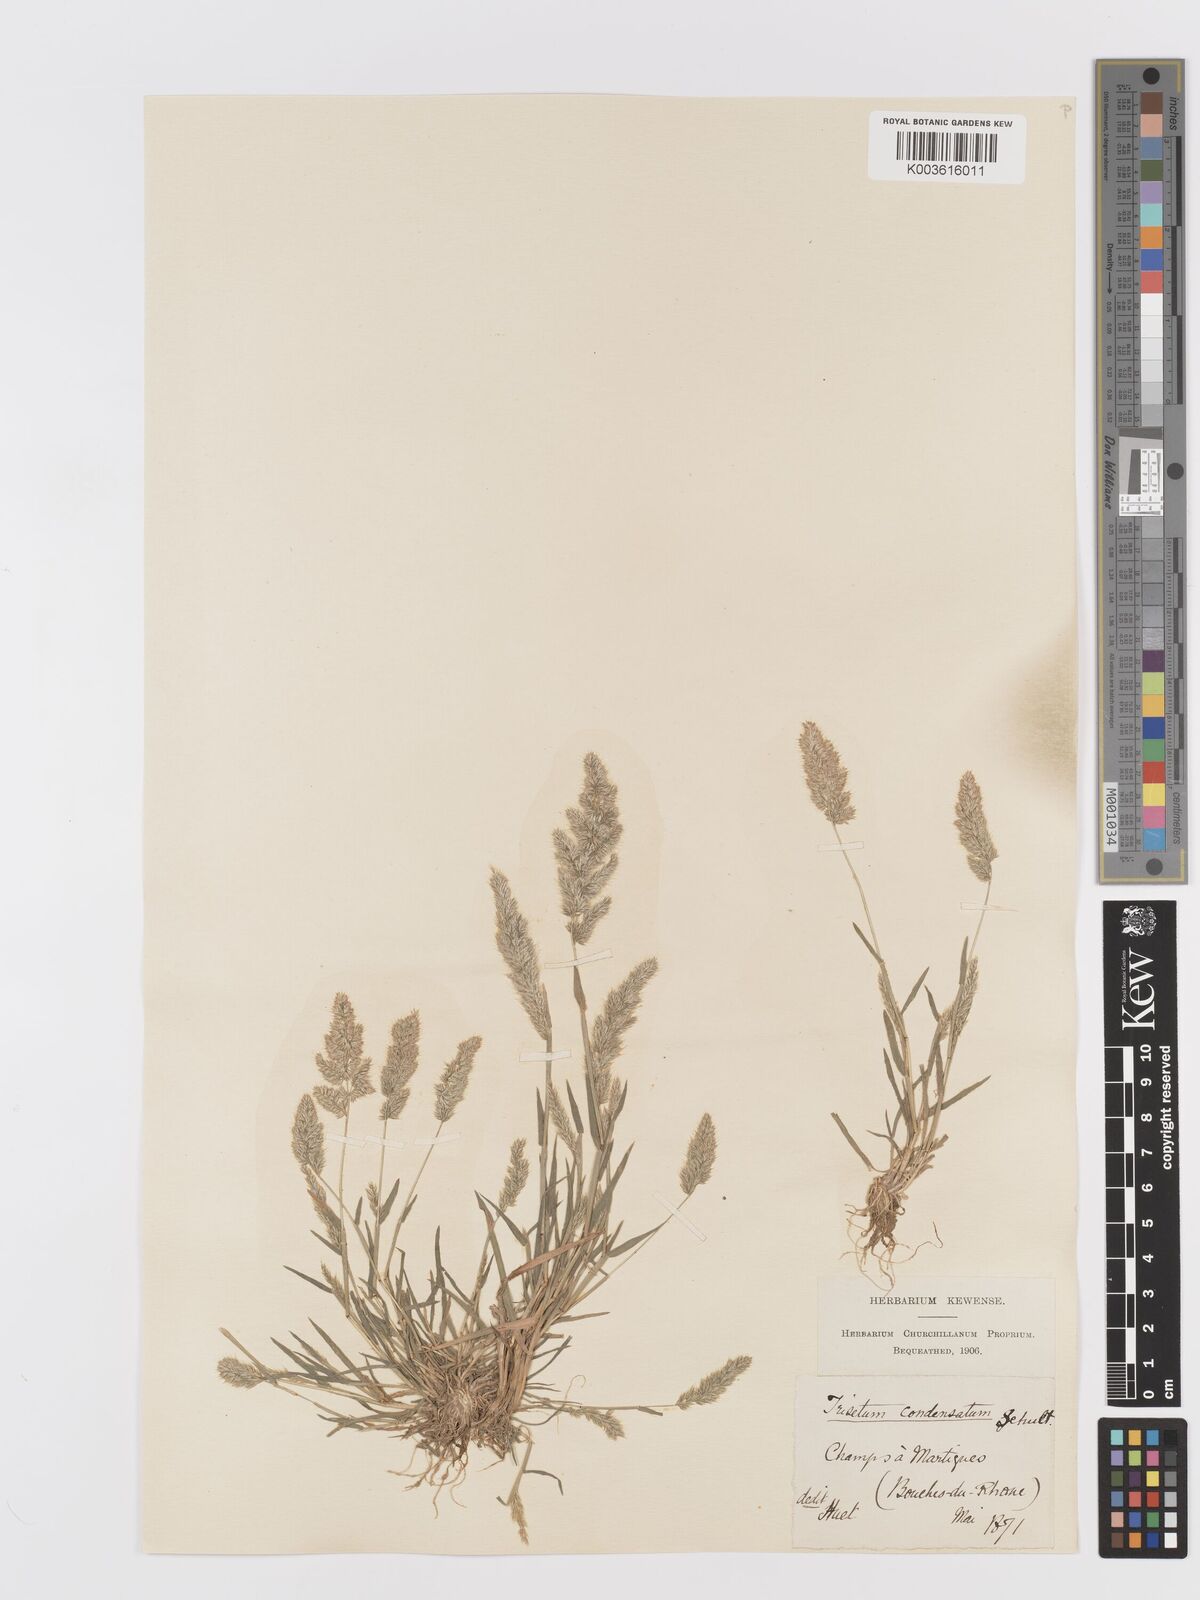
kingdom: Plantae
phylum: Tracheophyta
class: Liliopsida
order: Poales
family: Poaceae
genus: Trisetaria
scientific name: Trisetaria aurea
